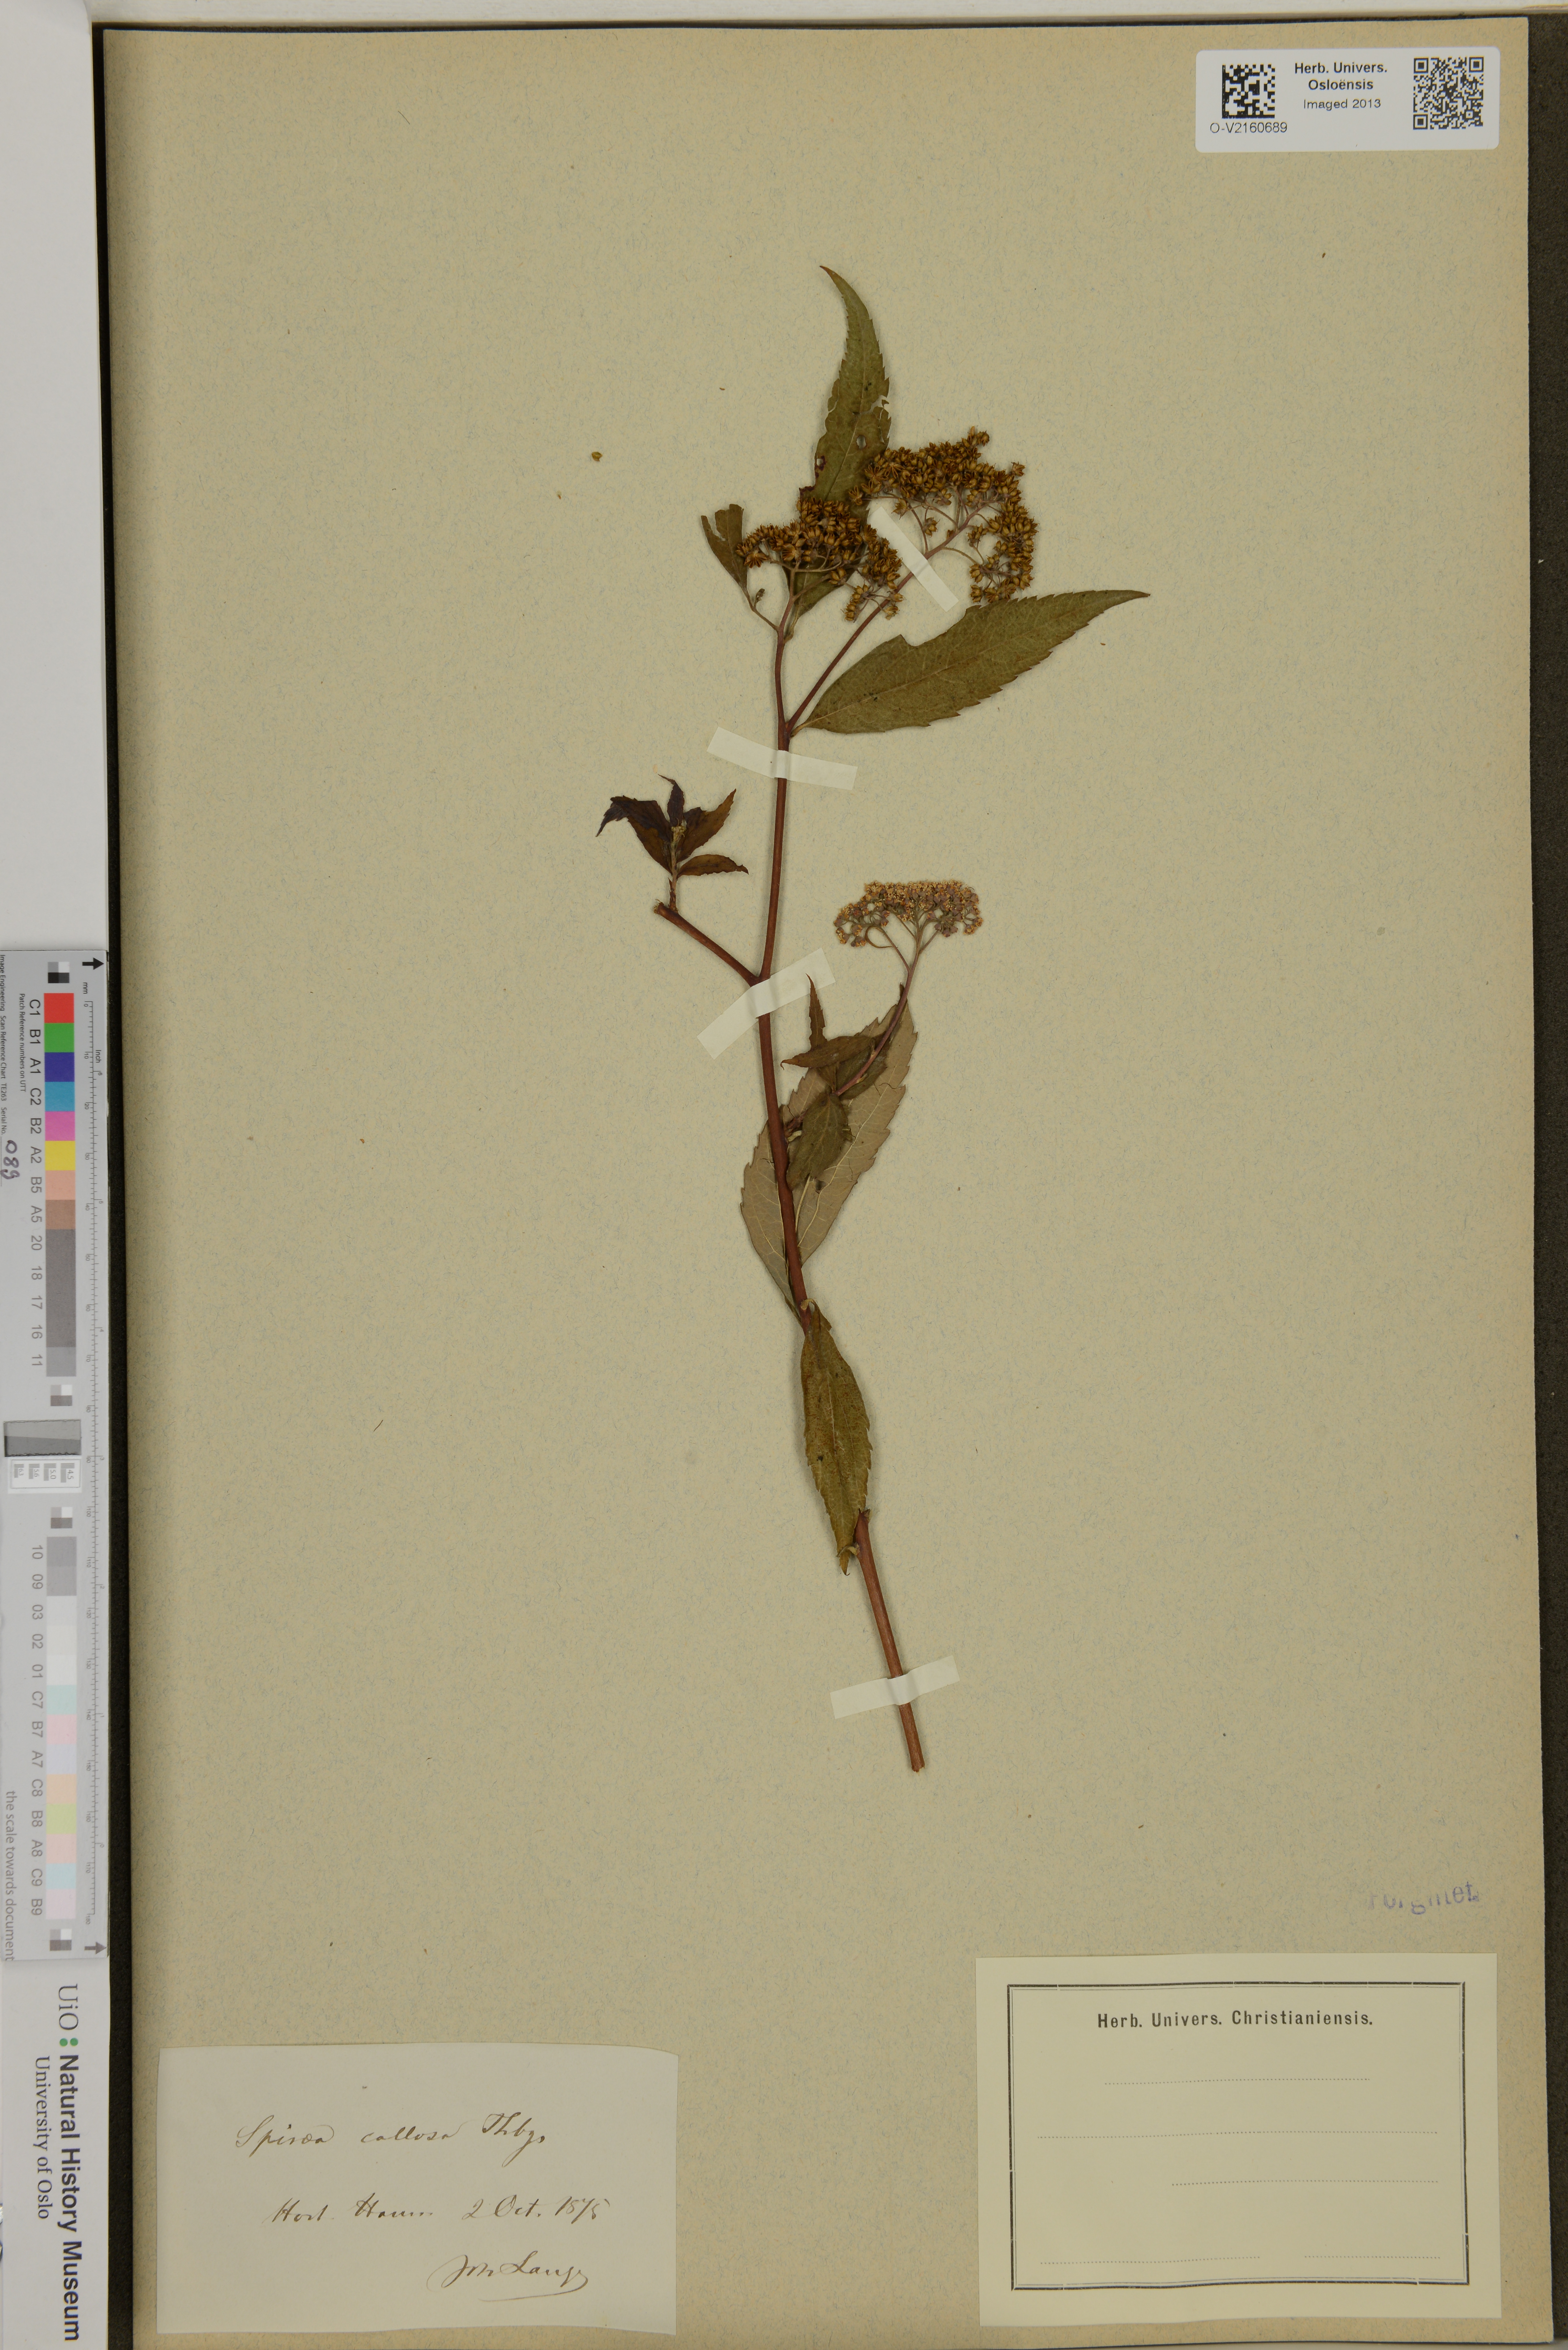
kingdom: Plantae
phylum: Tracheophyta
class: Magnoliopsida
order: Rosales
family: Rosaceae
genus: Spiraea
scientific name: Spiraea
